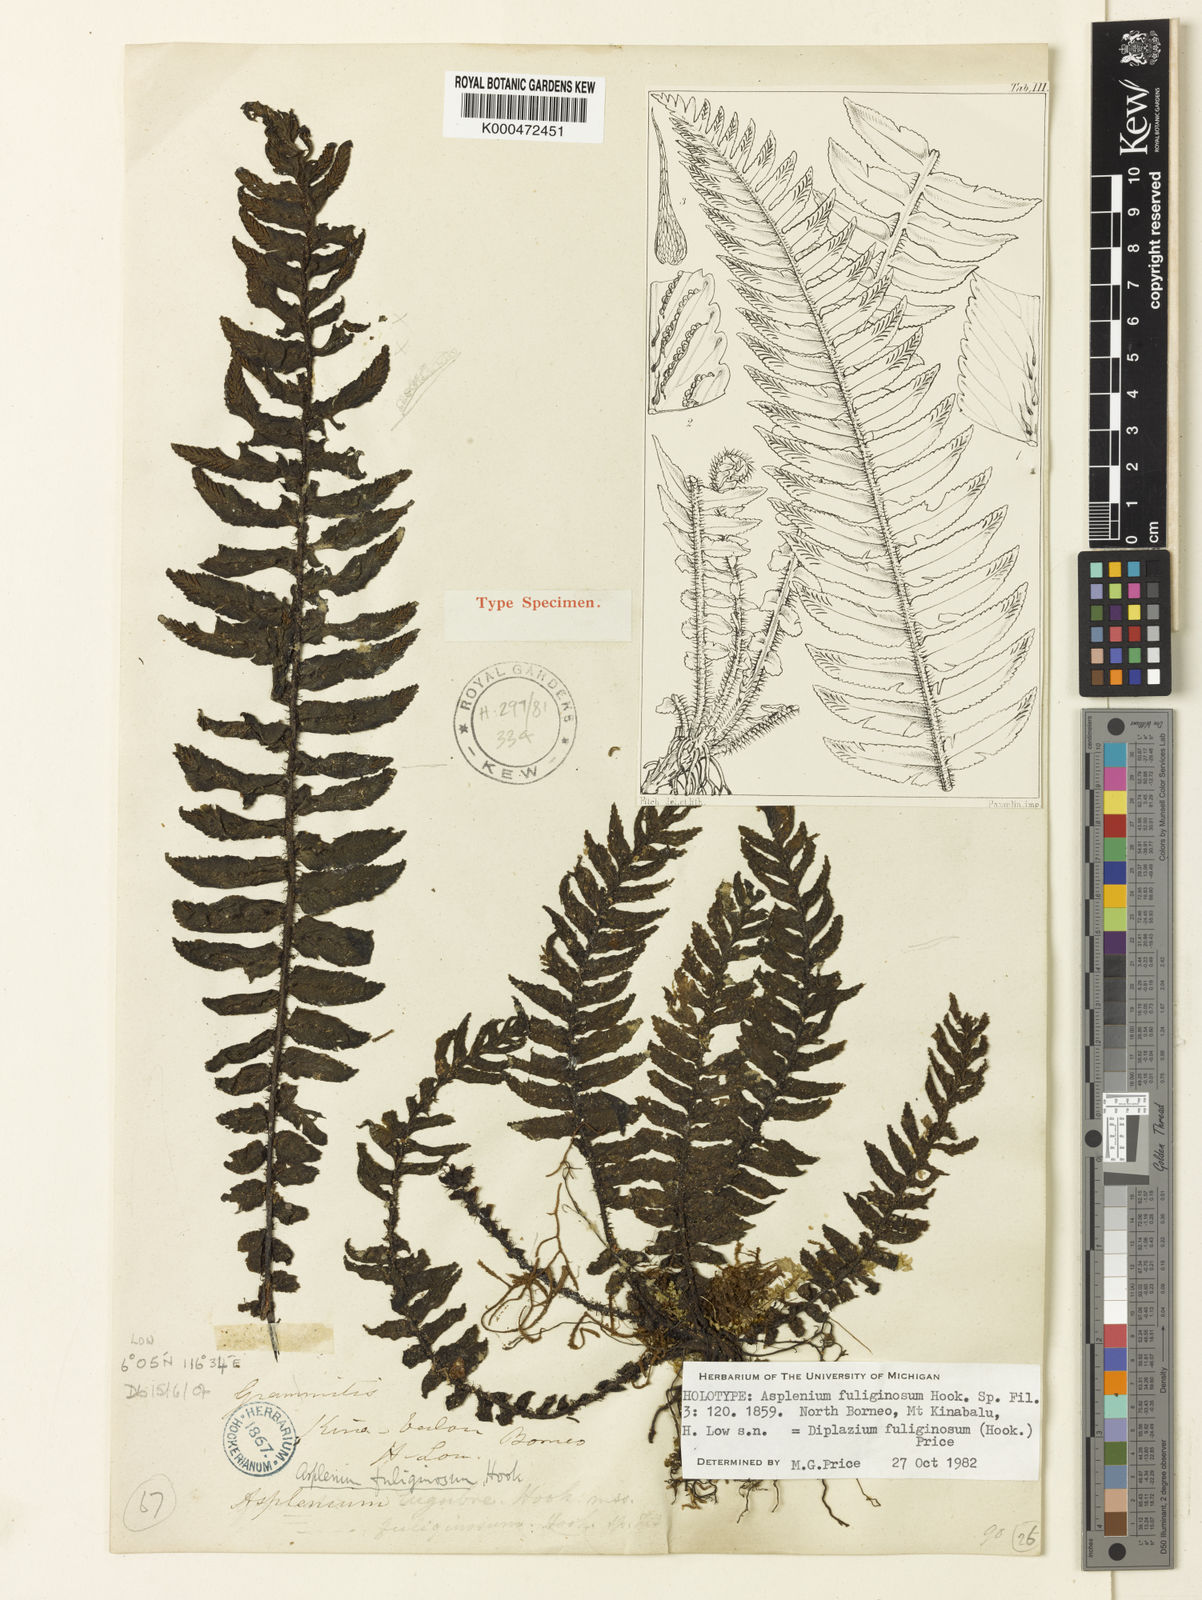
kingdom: Plantae
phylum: Tracheophyta
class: Polypodiopsida
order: Polypodiales
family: Athyriaceae
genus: Diplazium
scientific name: Diplazium fuliginosum
